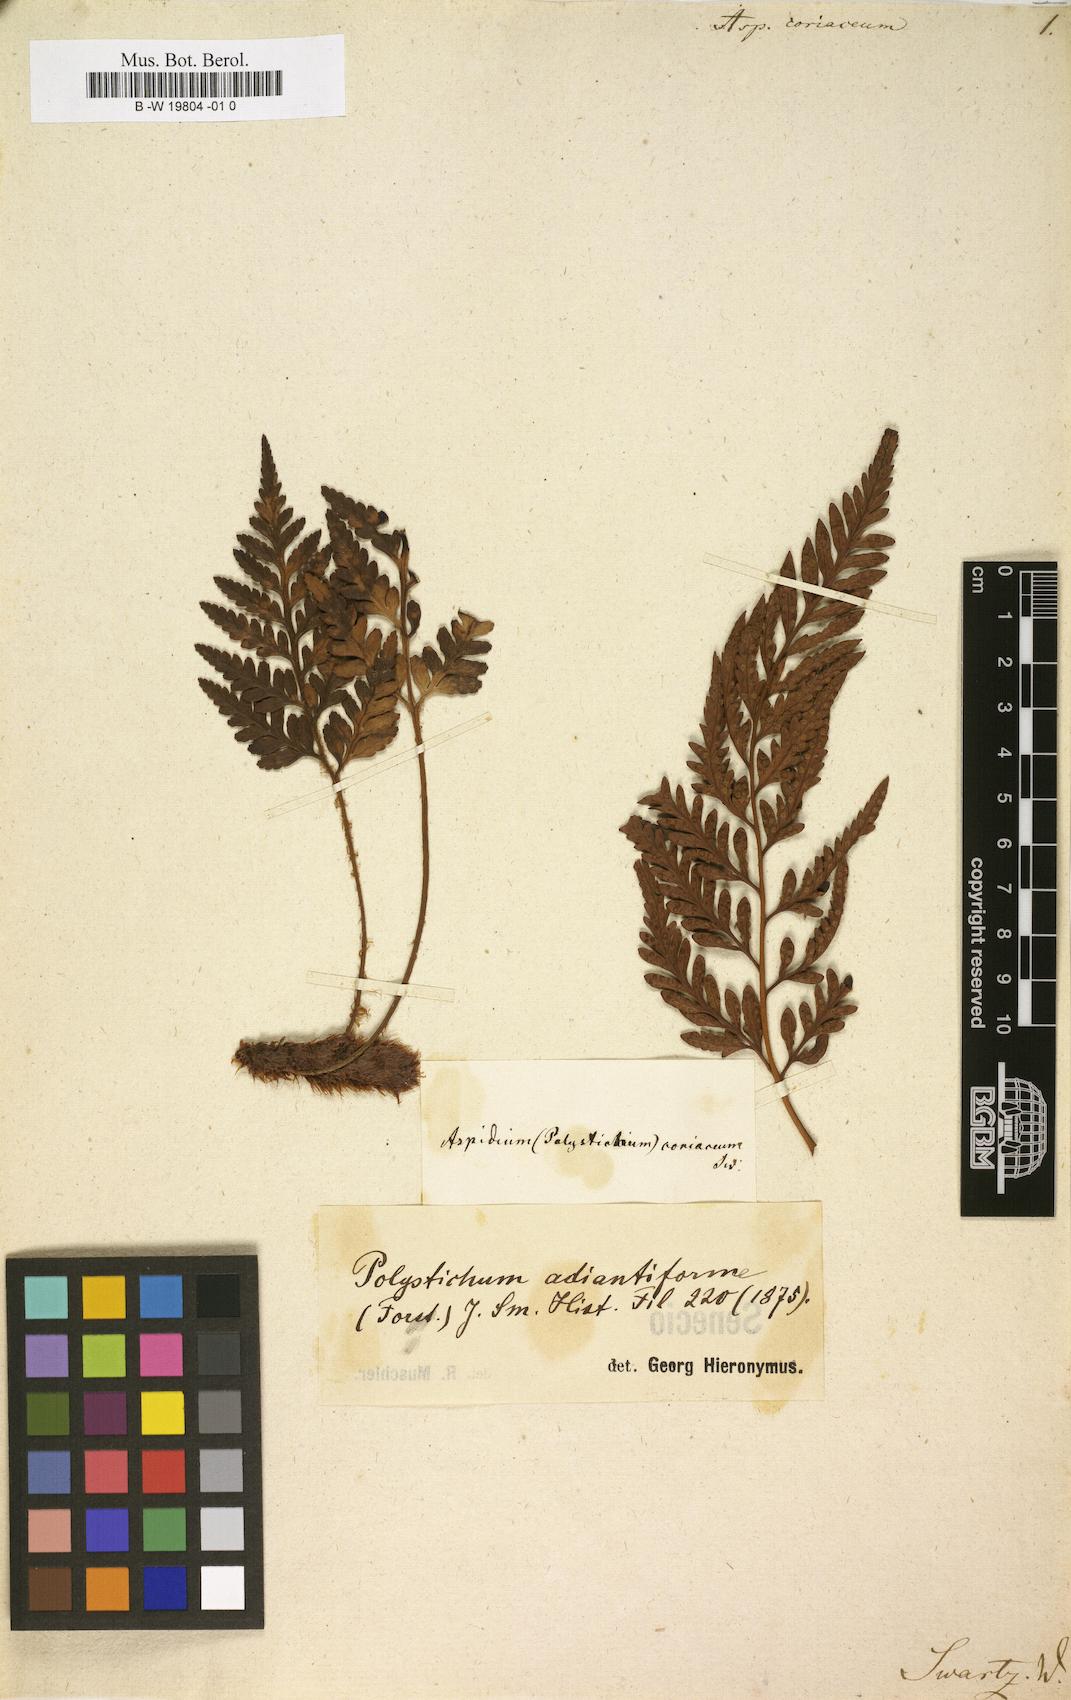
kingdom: Plantae
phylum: Tracheophyta
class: Polypodiopsida
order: Polypodiales
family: Dryopteridaceae
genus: Rumohra
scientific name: Rumohra adiantiformis
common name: Leather fern
